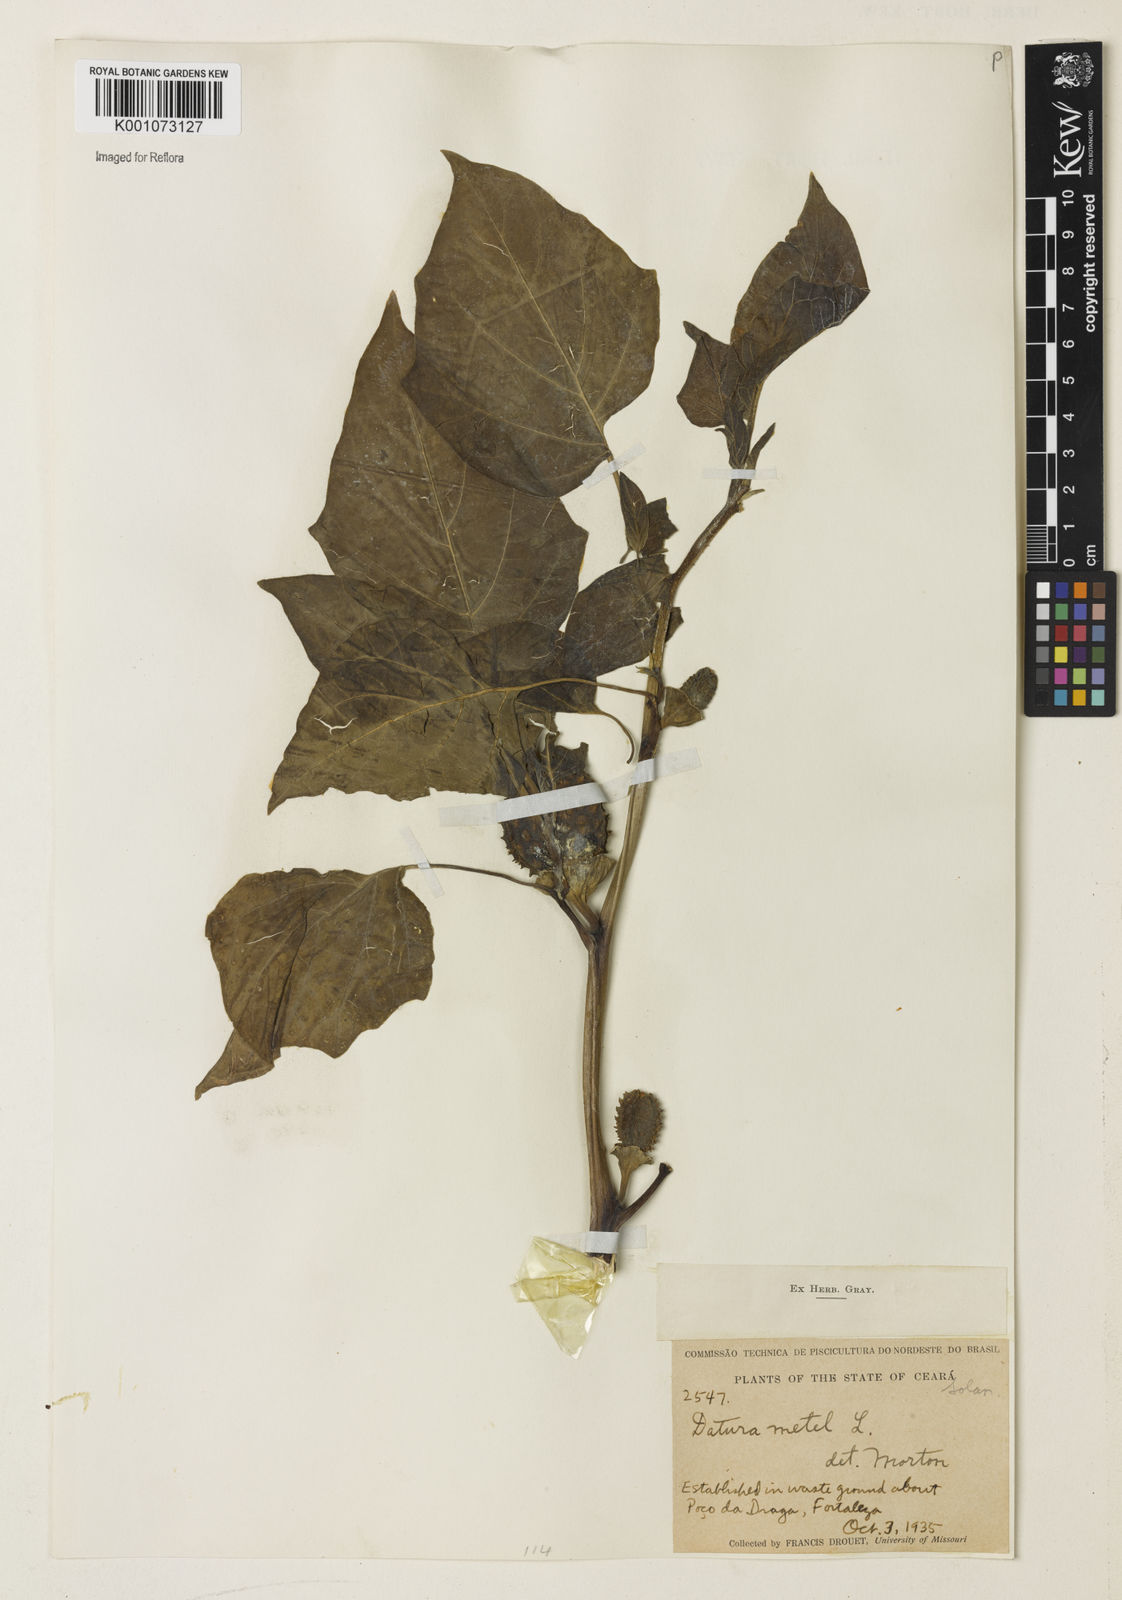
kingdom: Plantae
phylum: Tracheophyta
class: Magnoliopsida
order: Solanales
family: Solanaceae
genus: Datura
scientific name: Datura metel
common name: Jimsonweed
